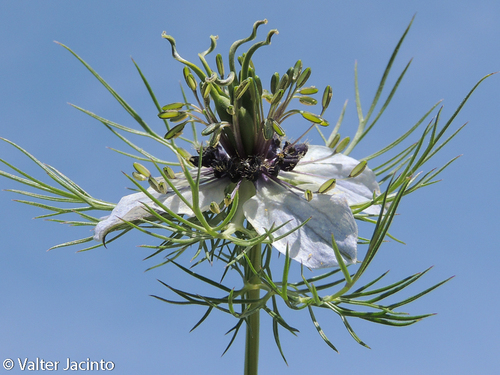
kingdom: Plantae
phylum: Tracheophyta
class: Magnoliopsida
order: Ranunculales
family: Ranunculaceae
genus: Nigella
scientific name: Nigella damascena
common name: Love-in-a-mist
